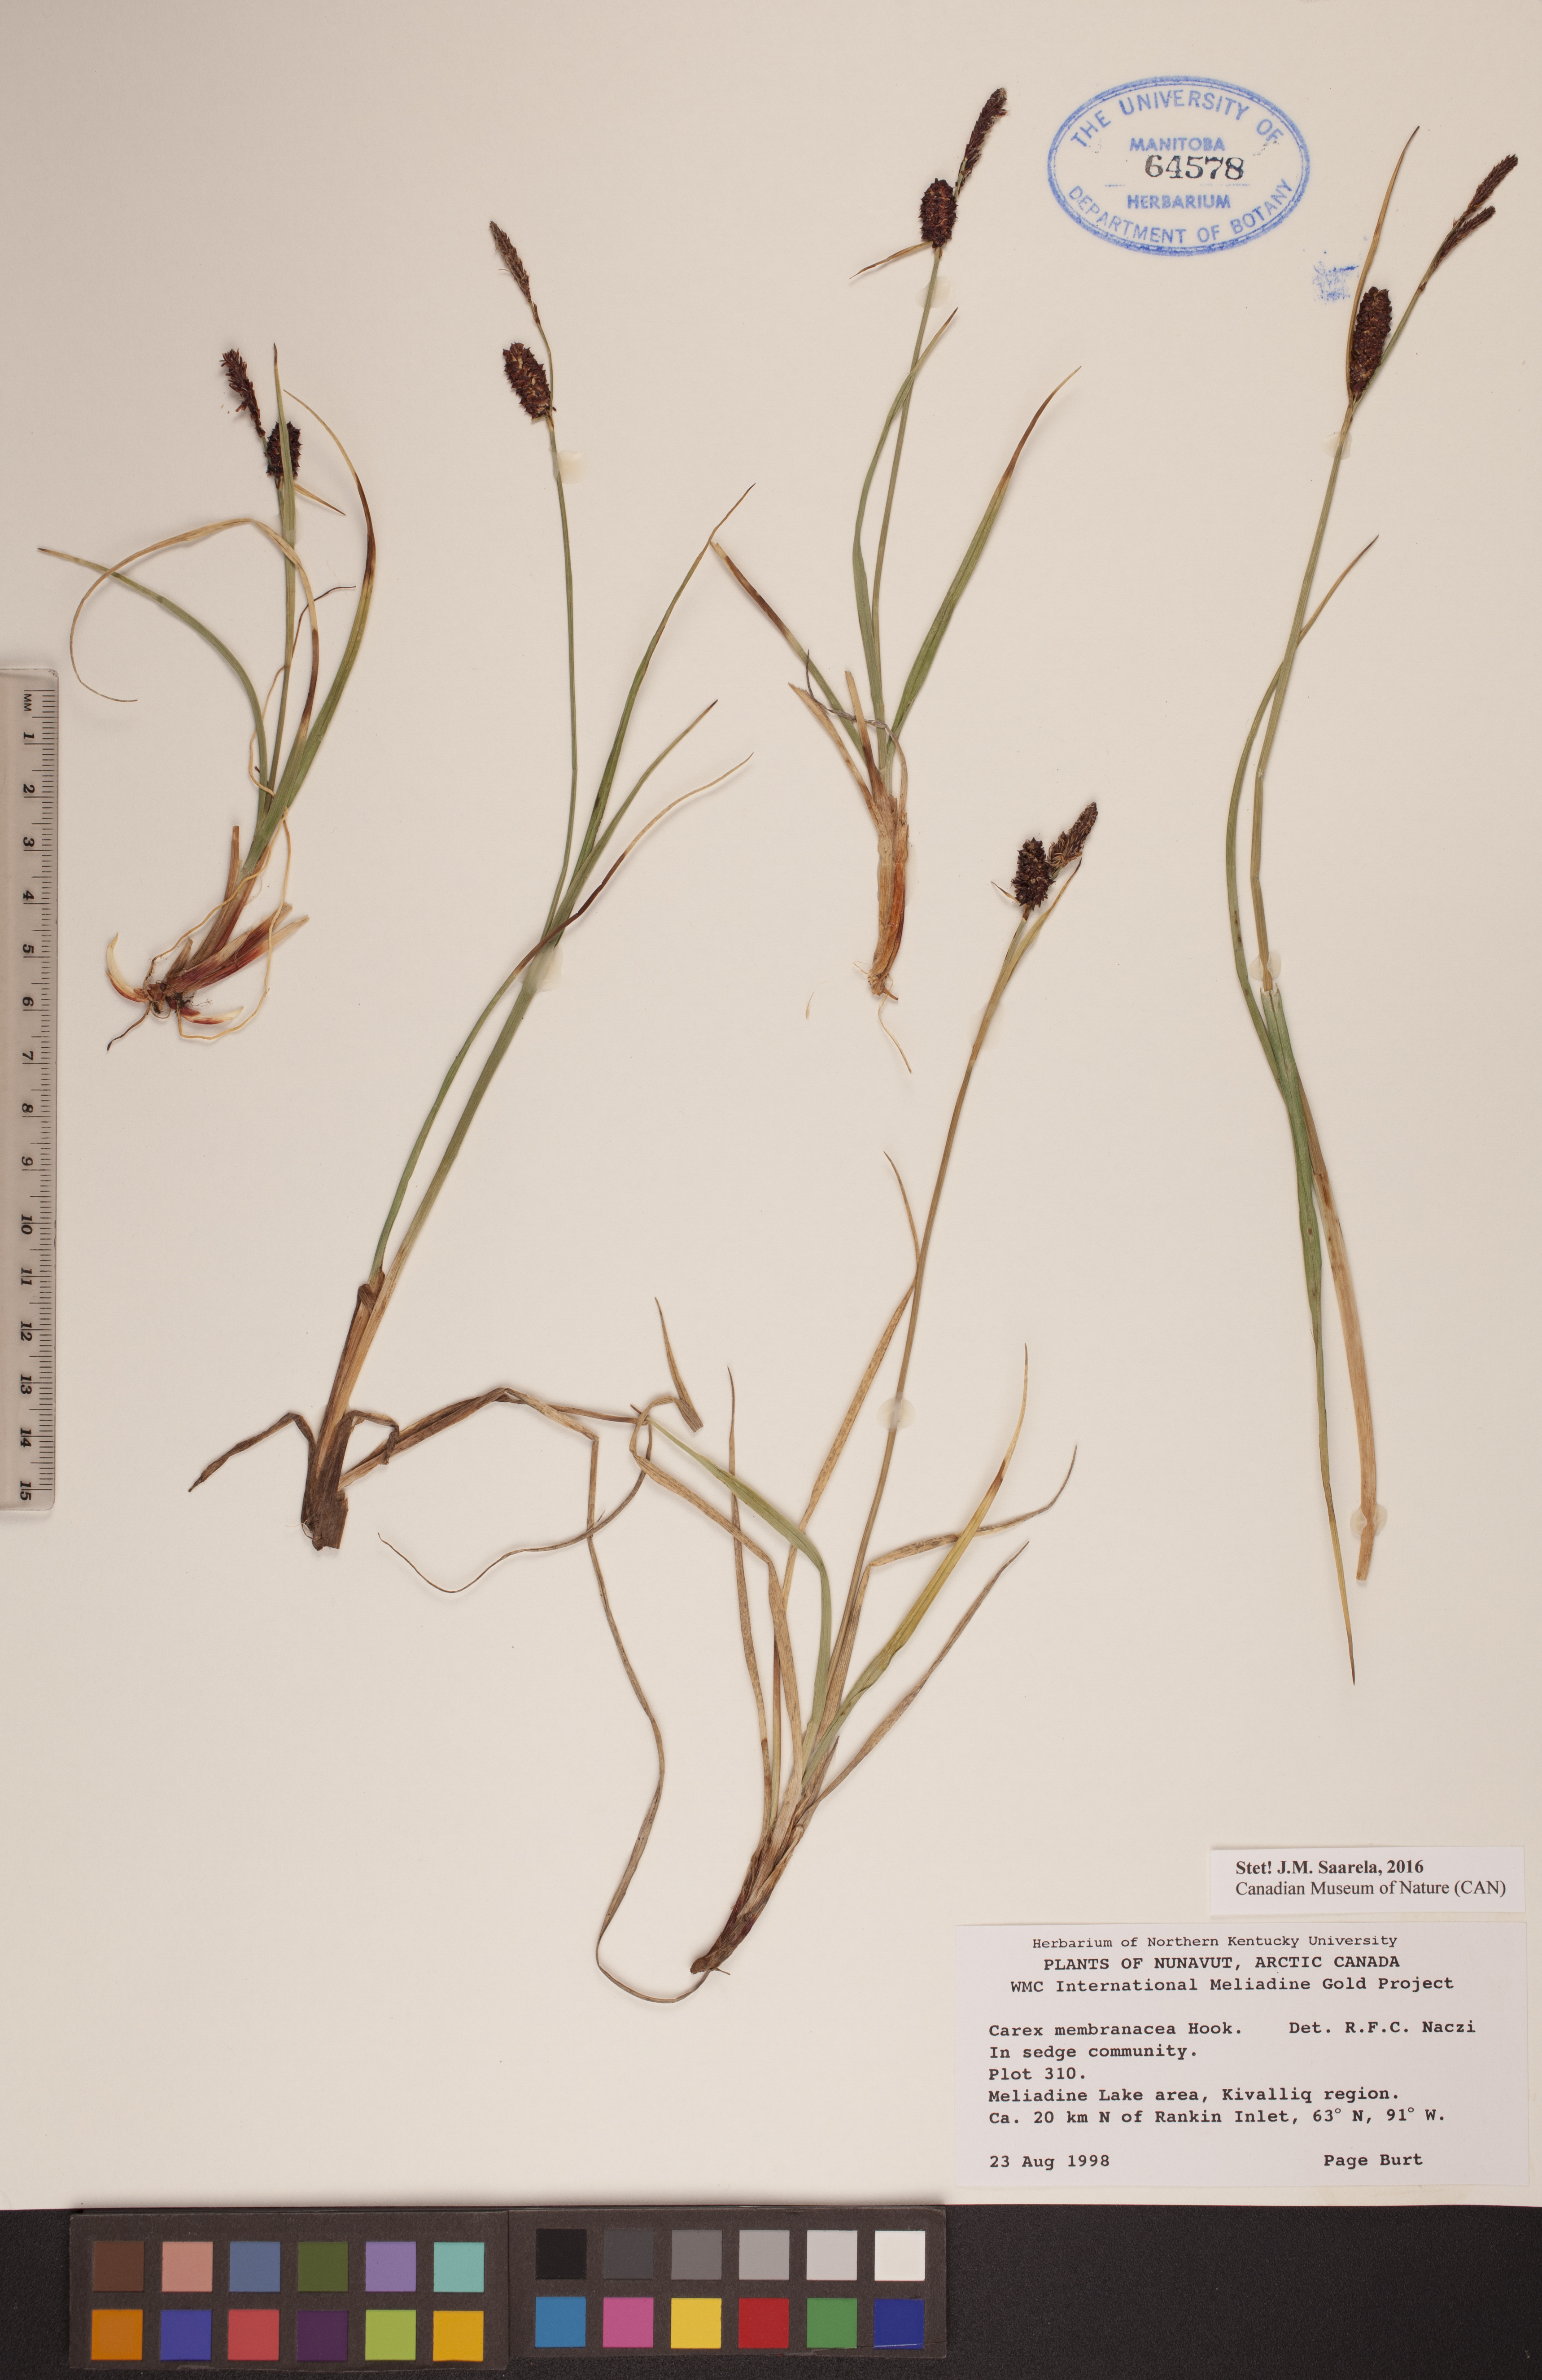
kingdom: Plantae
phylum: Tracheophyta
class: Liliopsida
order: Poales
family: Cyperaceae
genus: Carex
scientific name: Carex membranacea
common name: Fragile sedge
